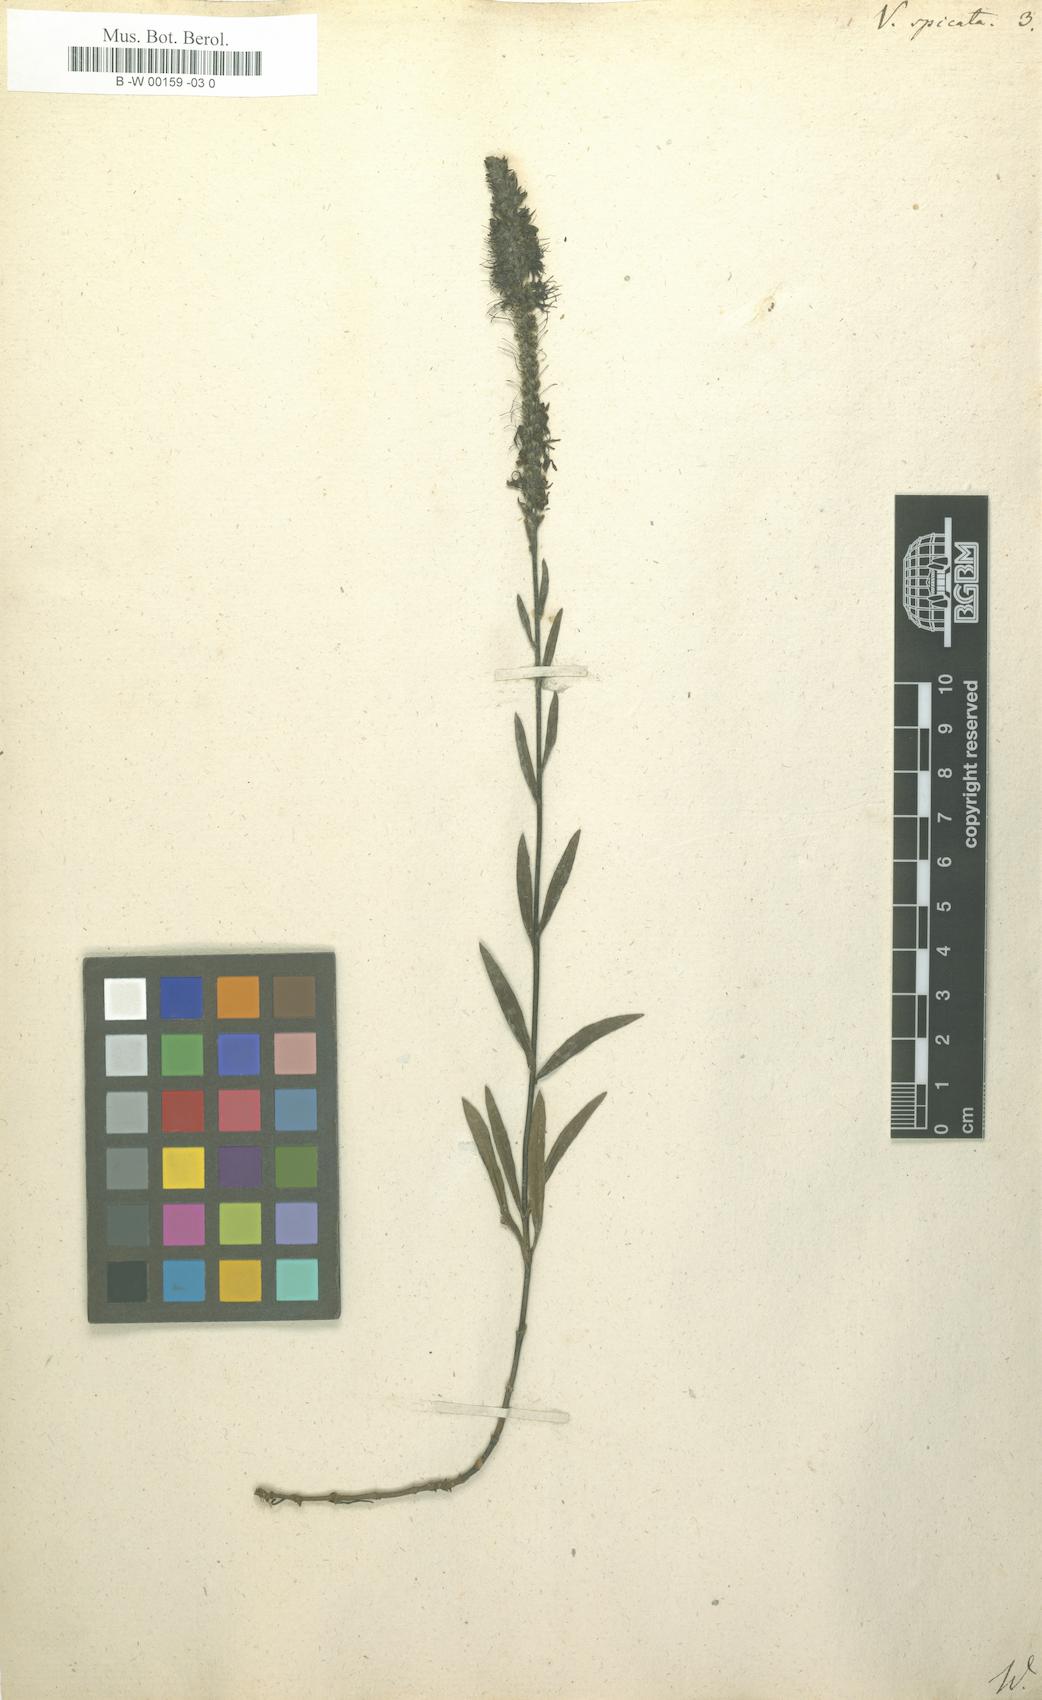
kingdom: Plantae
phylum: Tracheophyta
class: Magnoliopsida
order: Lamiales
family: Plantaginaceae
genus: Veronica
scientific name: Veronica spicata
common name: Spiked speedwell
